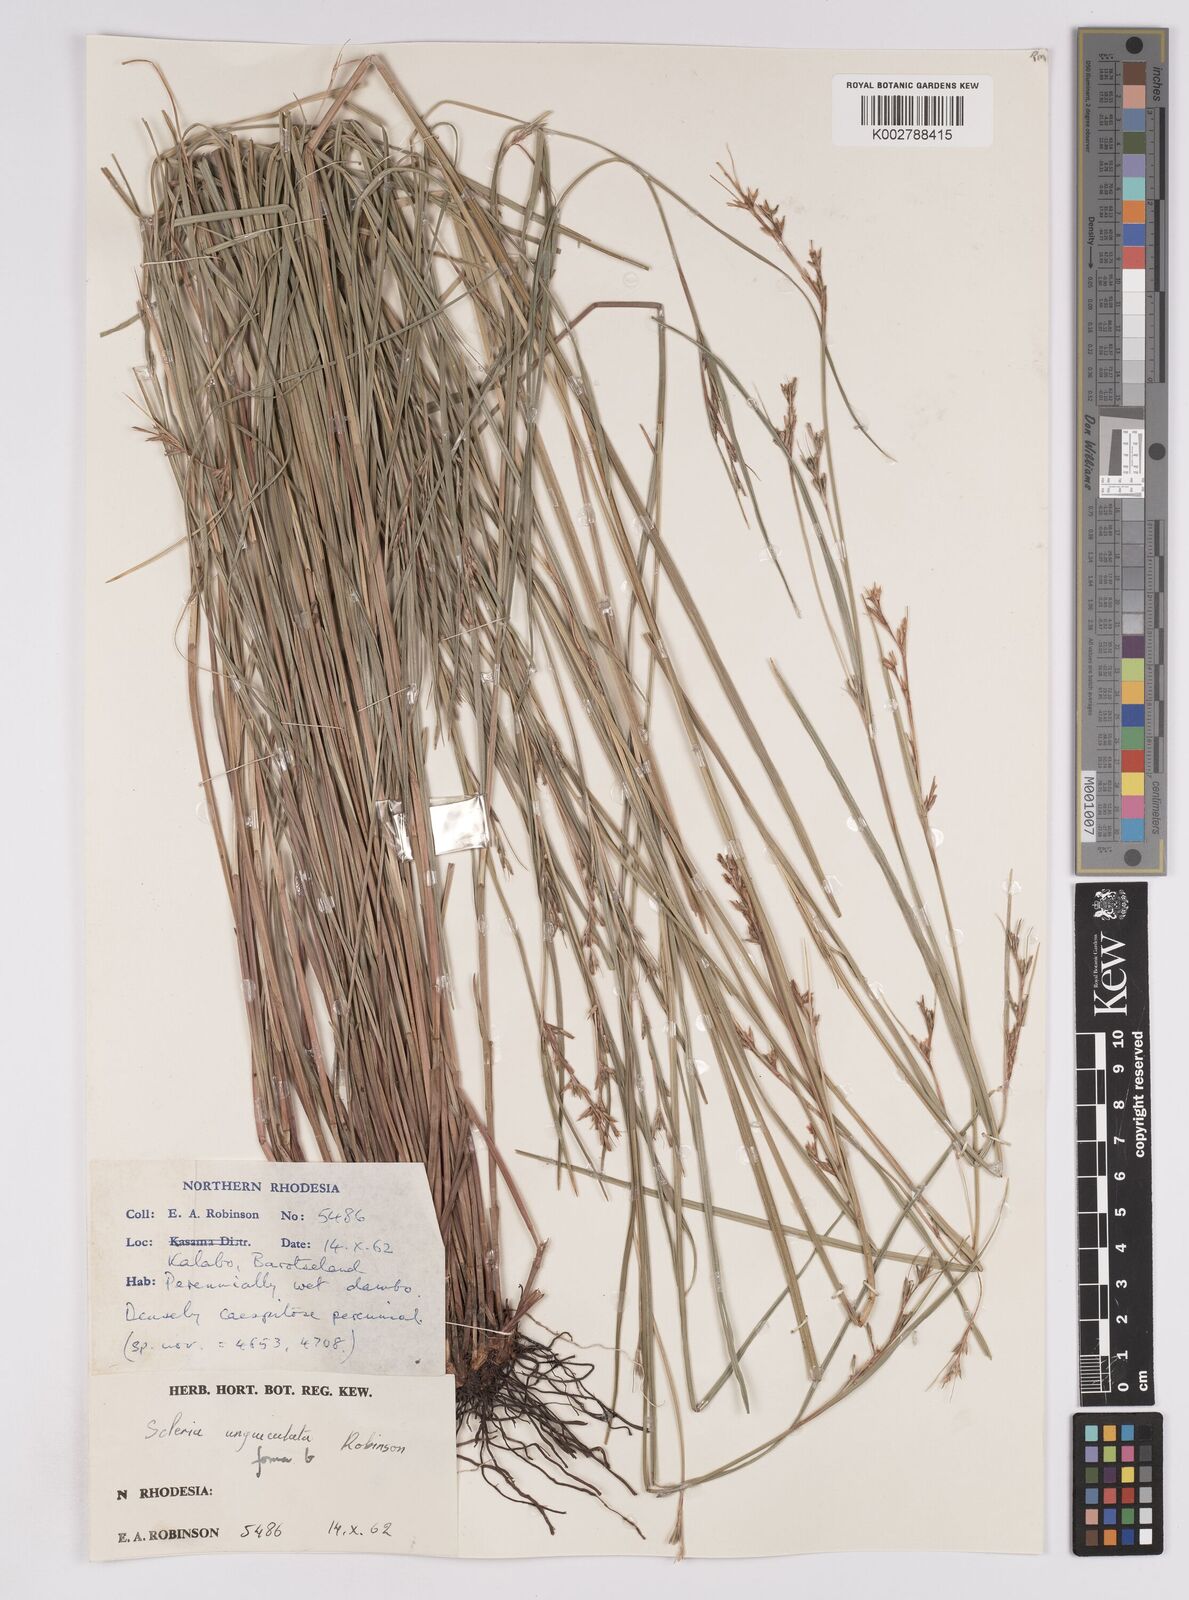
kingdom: Plantae
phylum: Tracheophyta
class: Liliopsida
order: Poales
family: Cyperaceae
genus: Scleria
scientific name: Scleria unguiculata
